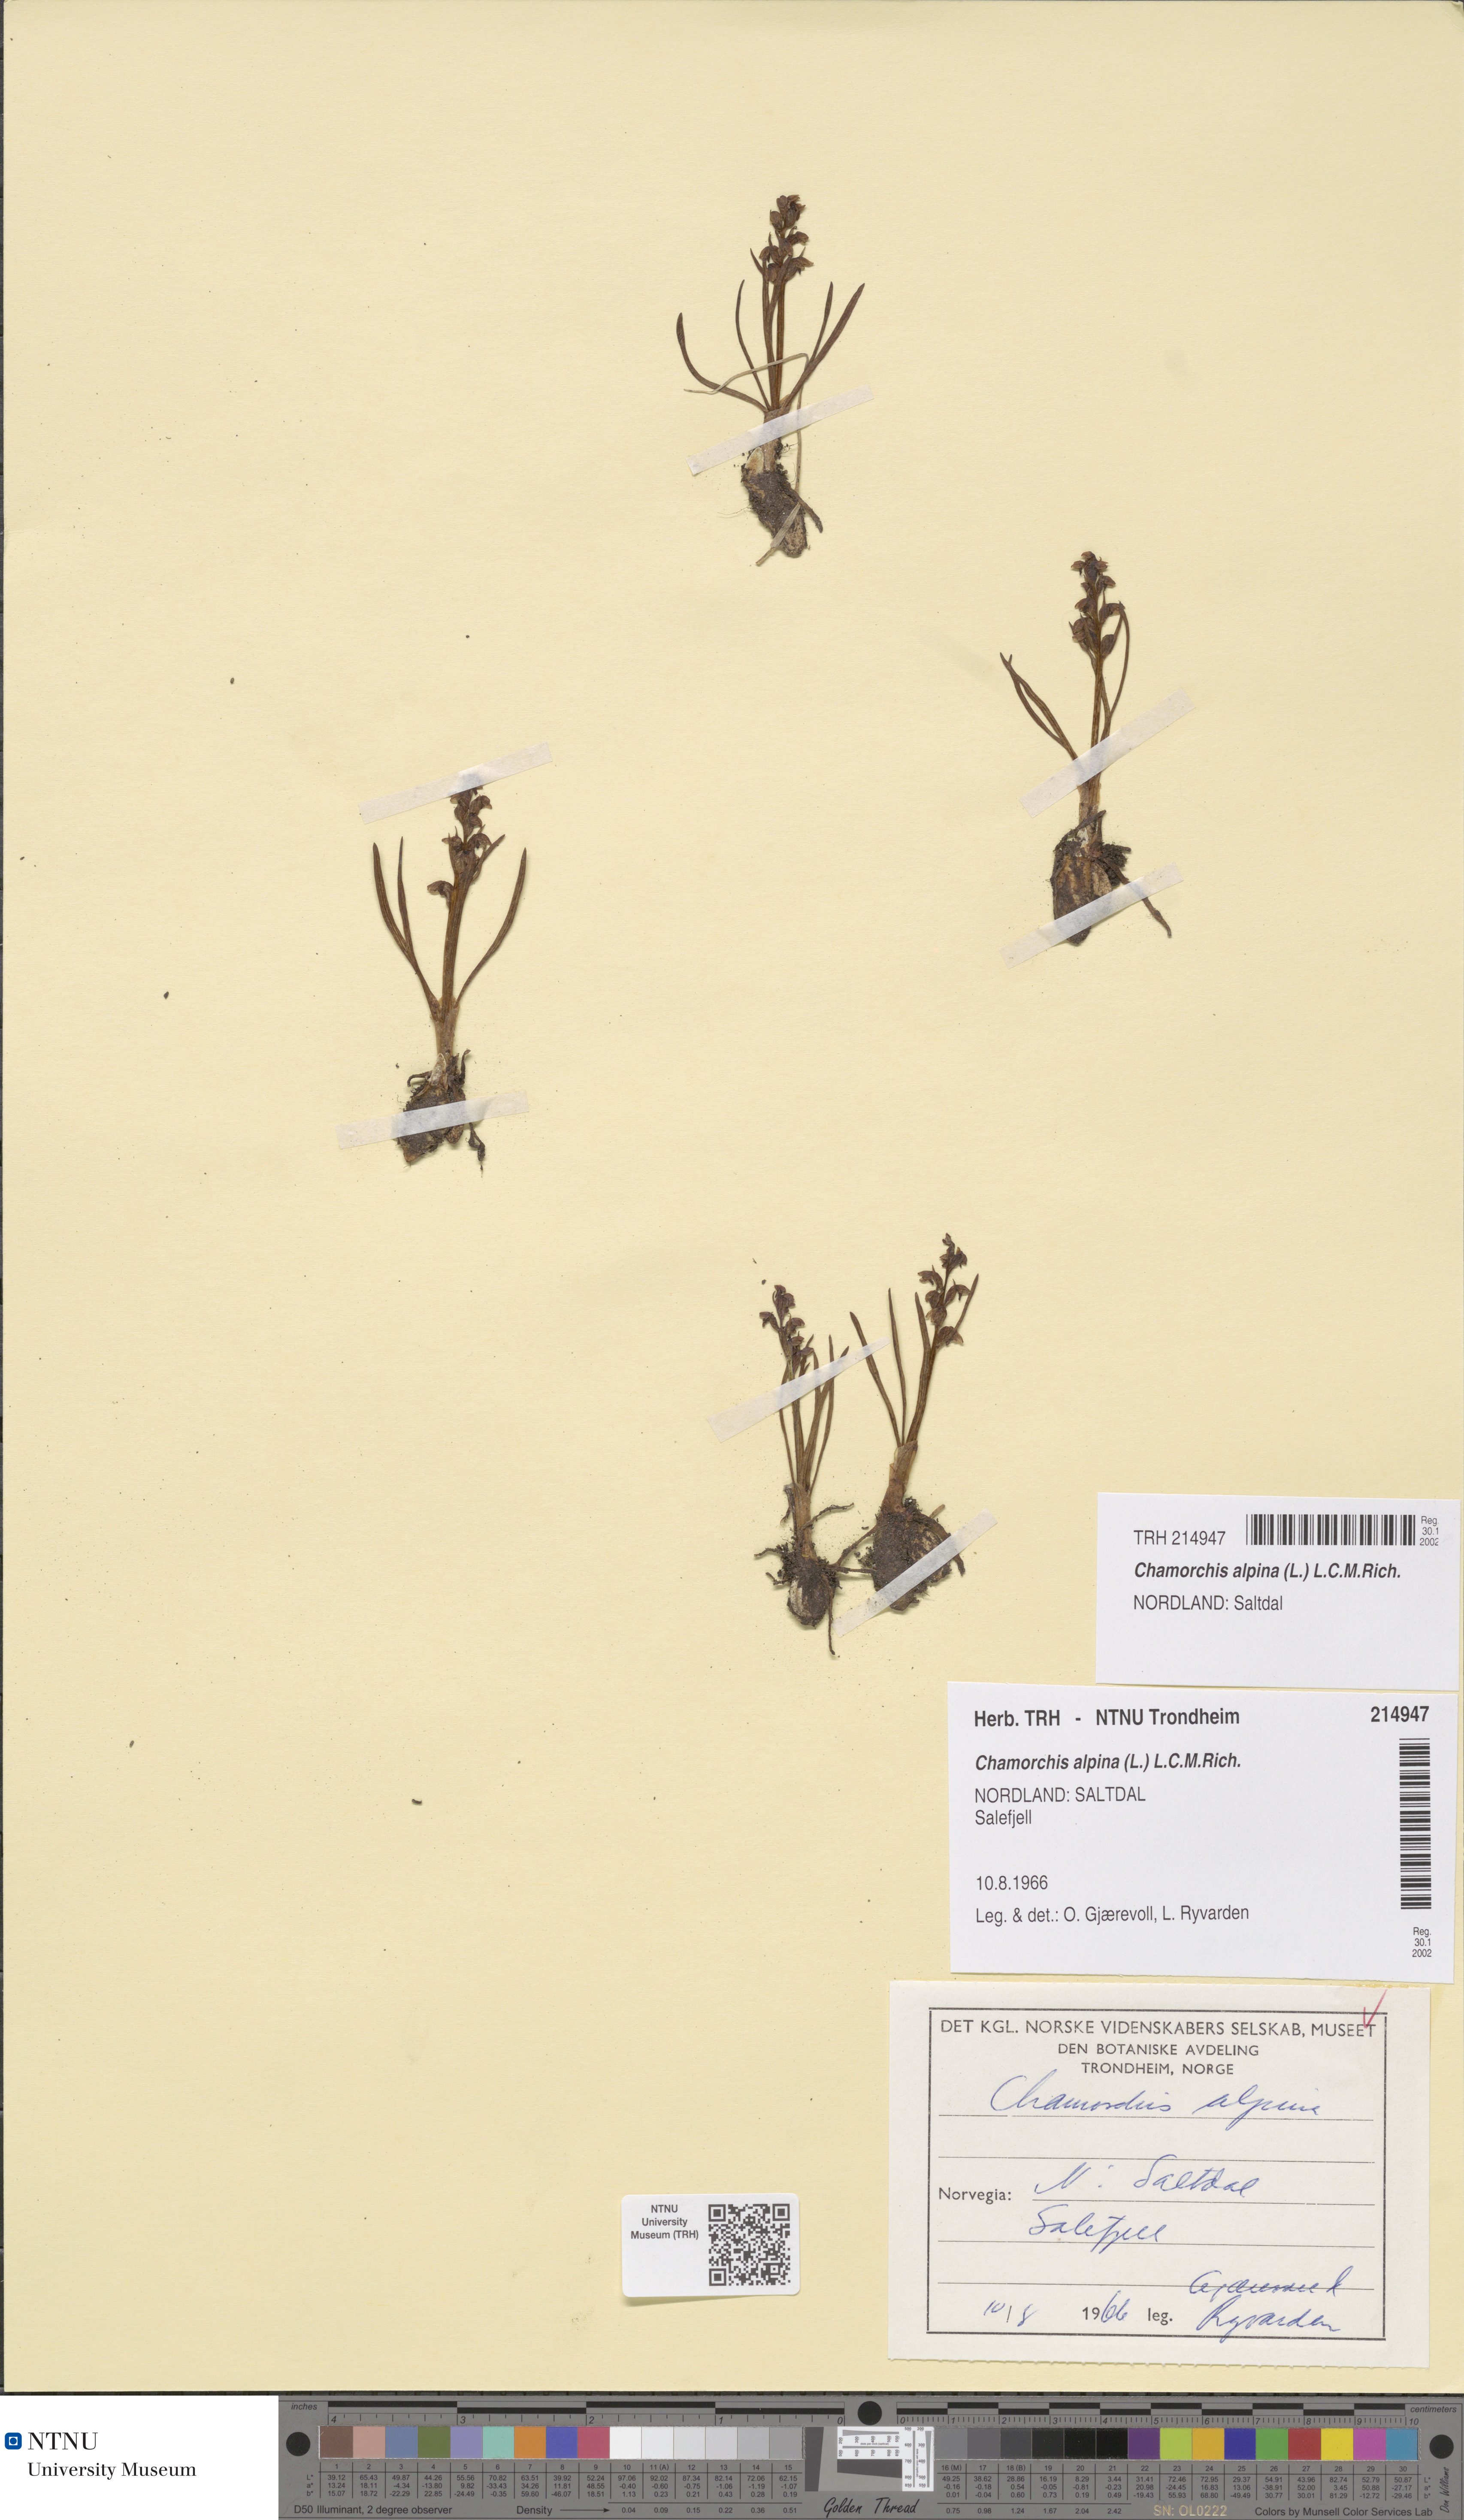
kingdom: Plantae
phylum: Tracheophyta
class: Liliopsida
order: Asparagales
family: Orchidaceae
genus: Chamorchis
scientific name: Chamorchis alpina
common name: Alpine chamorchis
